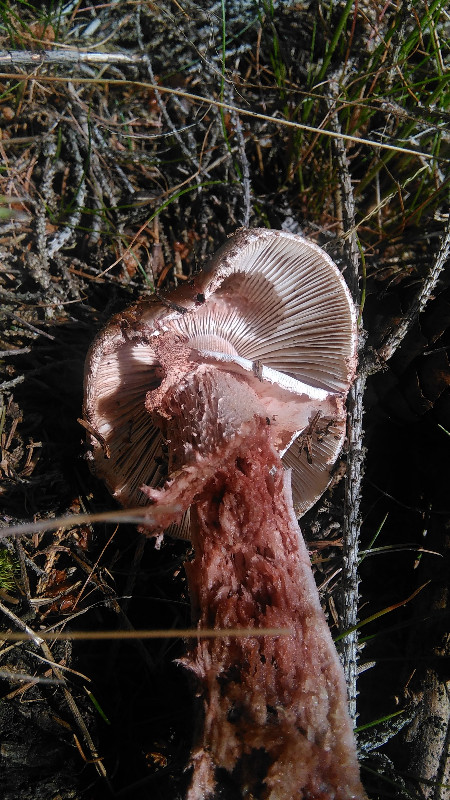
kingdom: Fungi
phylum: Basidiomycota
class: Agaricomycetes
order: Agaricales
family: Amanitaceae
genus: Amanita
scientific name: Amanita rubescens
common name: rødmende fluesvamp
